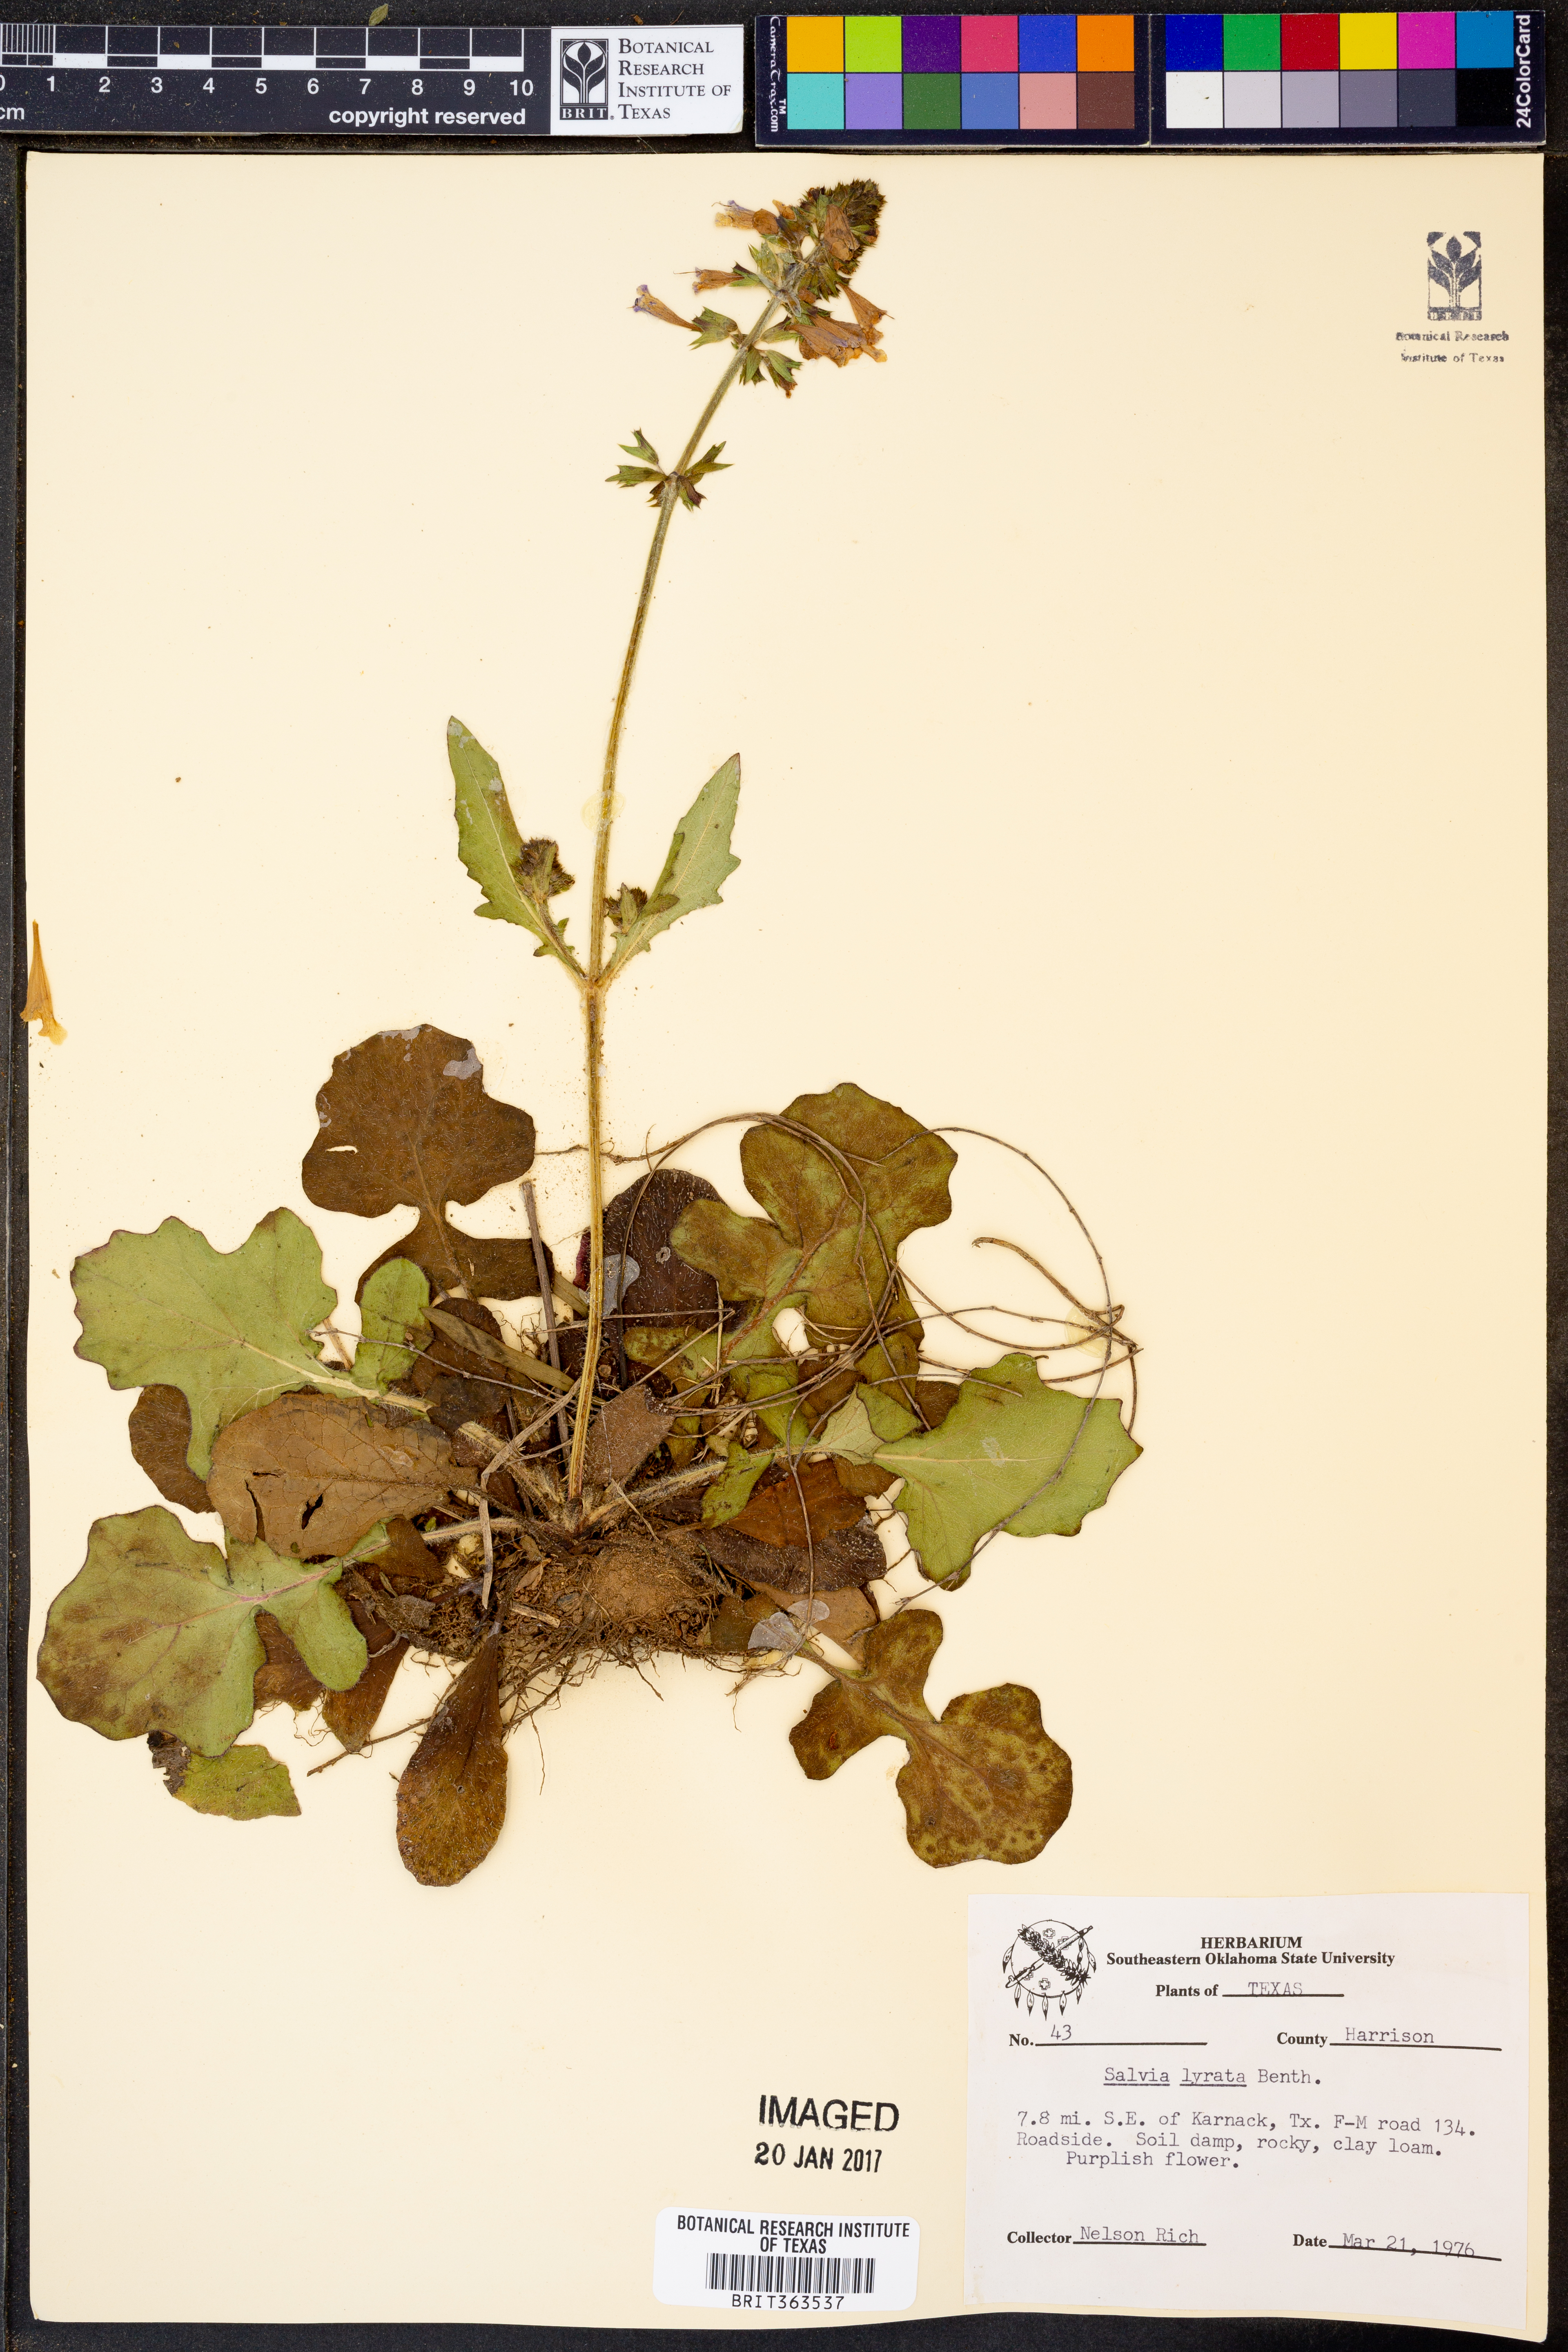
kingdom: Plantae
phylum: Tracheophyta
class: Magnoliopsida
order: Lamiales
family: Lamiaceae
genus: Salvia
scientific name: Salvia lyrata
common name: Cancerweed
